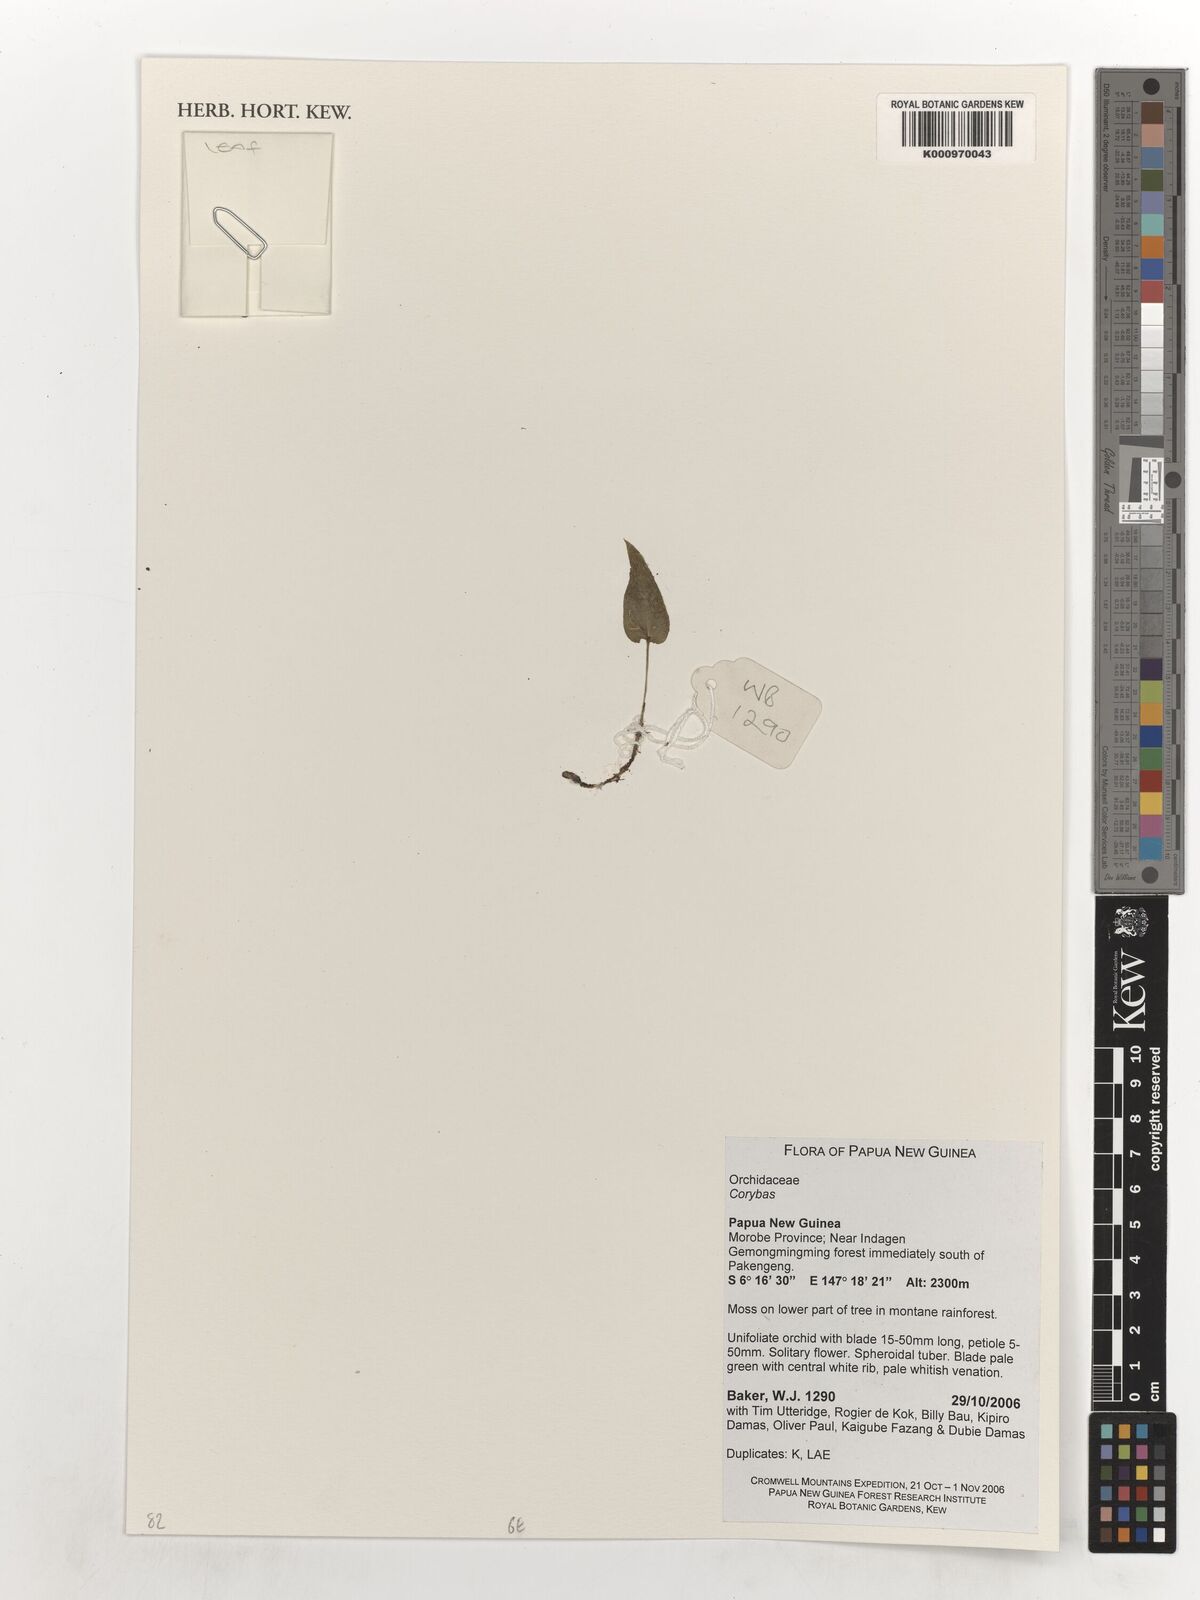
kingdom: Plantae
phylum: Tracheophyta
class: Liliopsida
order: Asparagales
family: Orchidaceae
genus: Corybas
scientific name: Corybas
